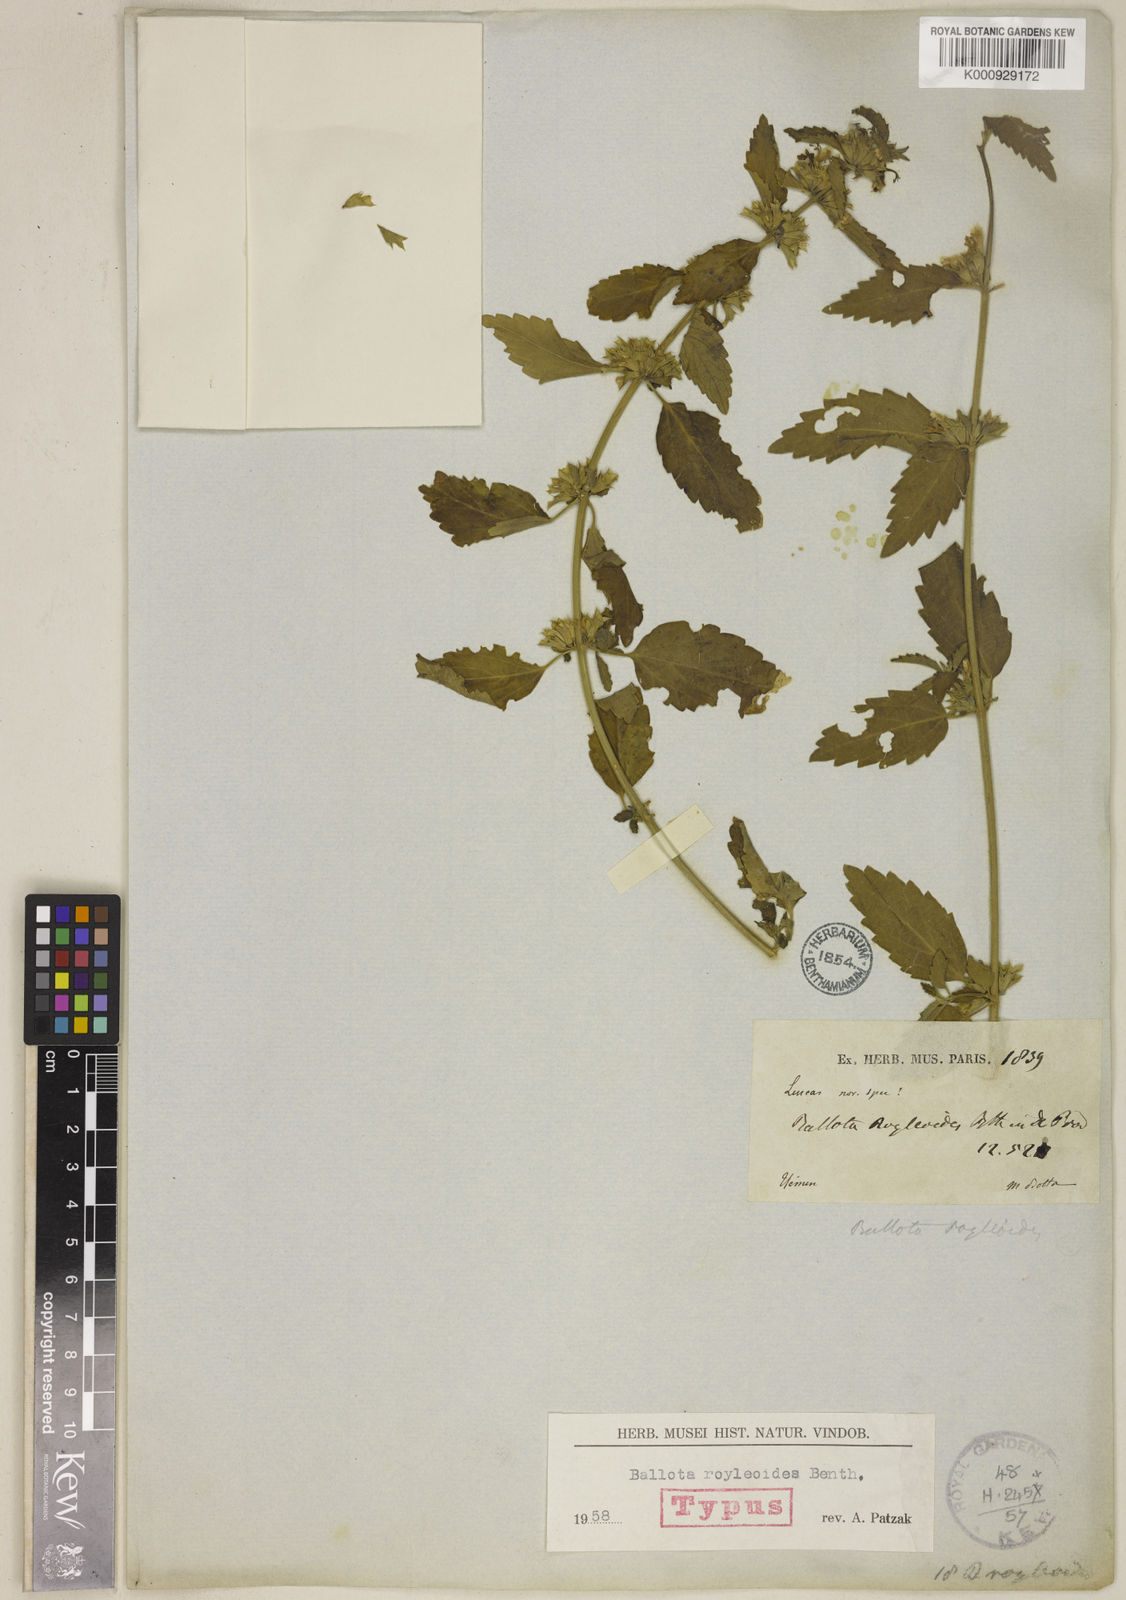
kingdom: Plantae
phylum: Tracheophyta
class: Magnoliopsida
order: Lamiales
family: Lamiaceae
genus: Leucas
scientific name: Leucas royleoides
